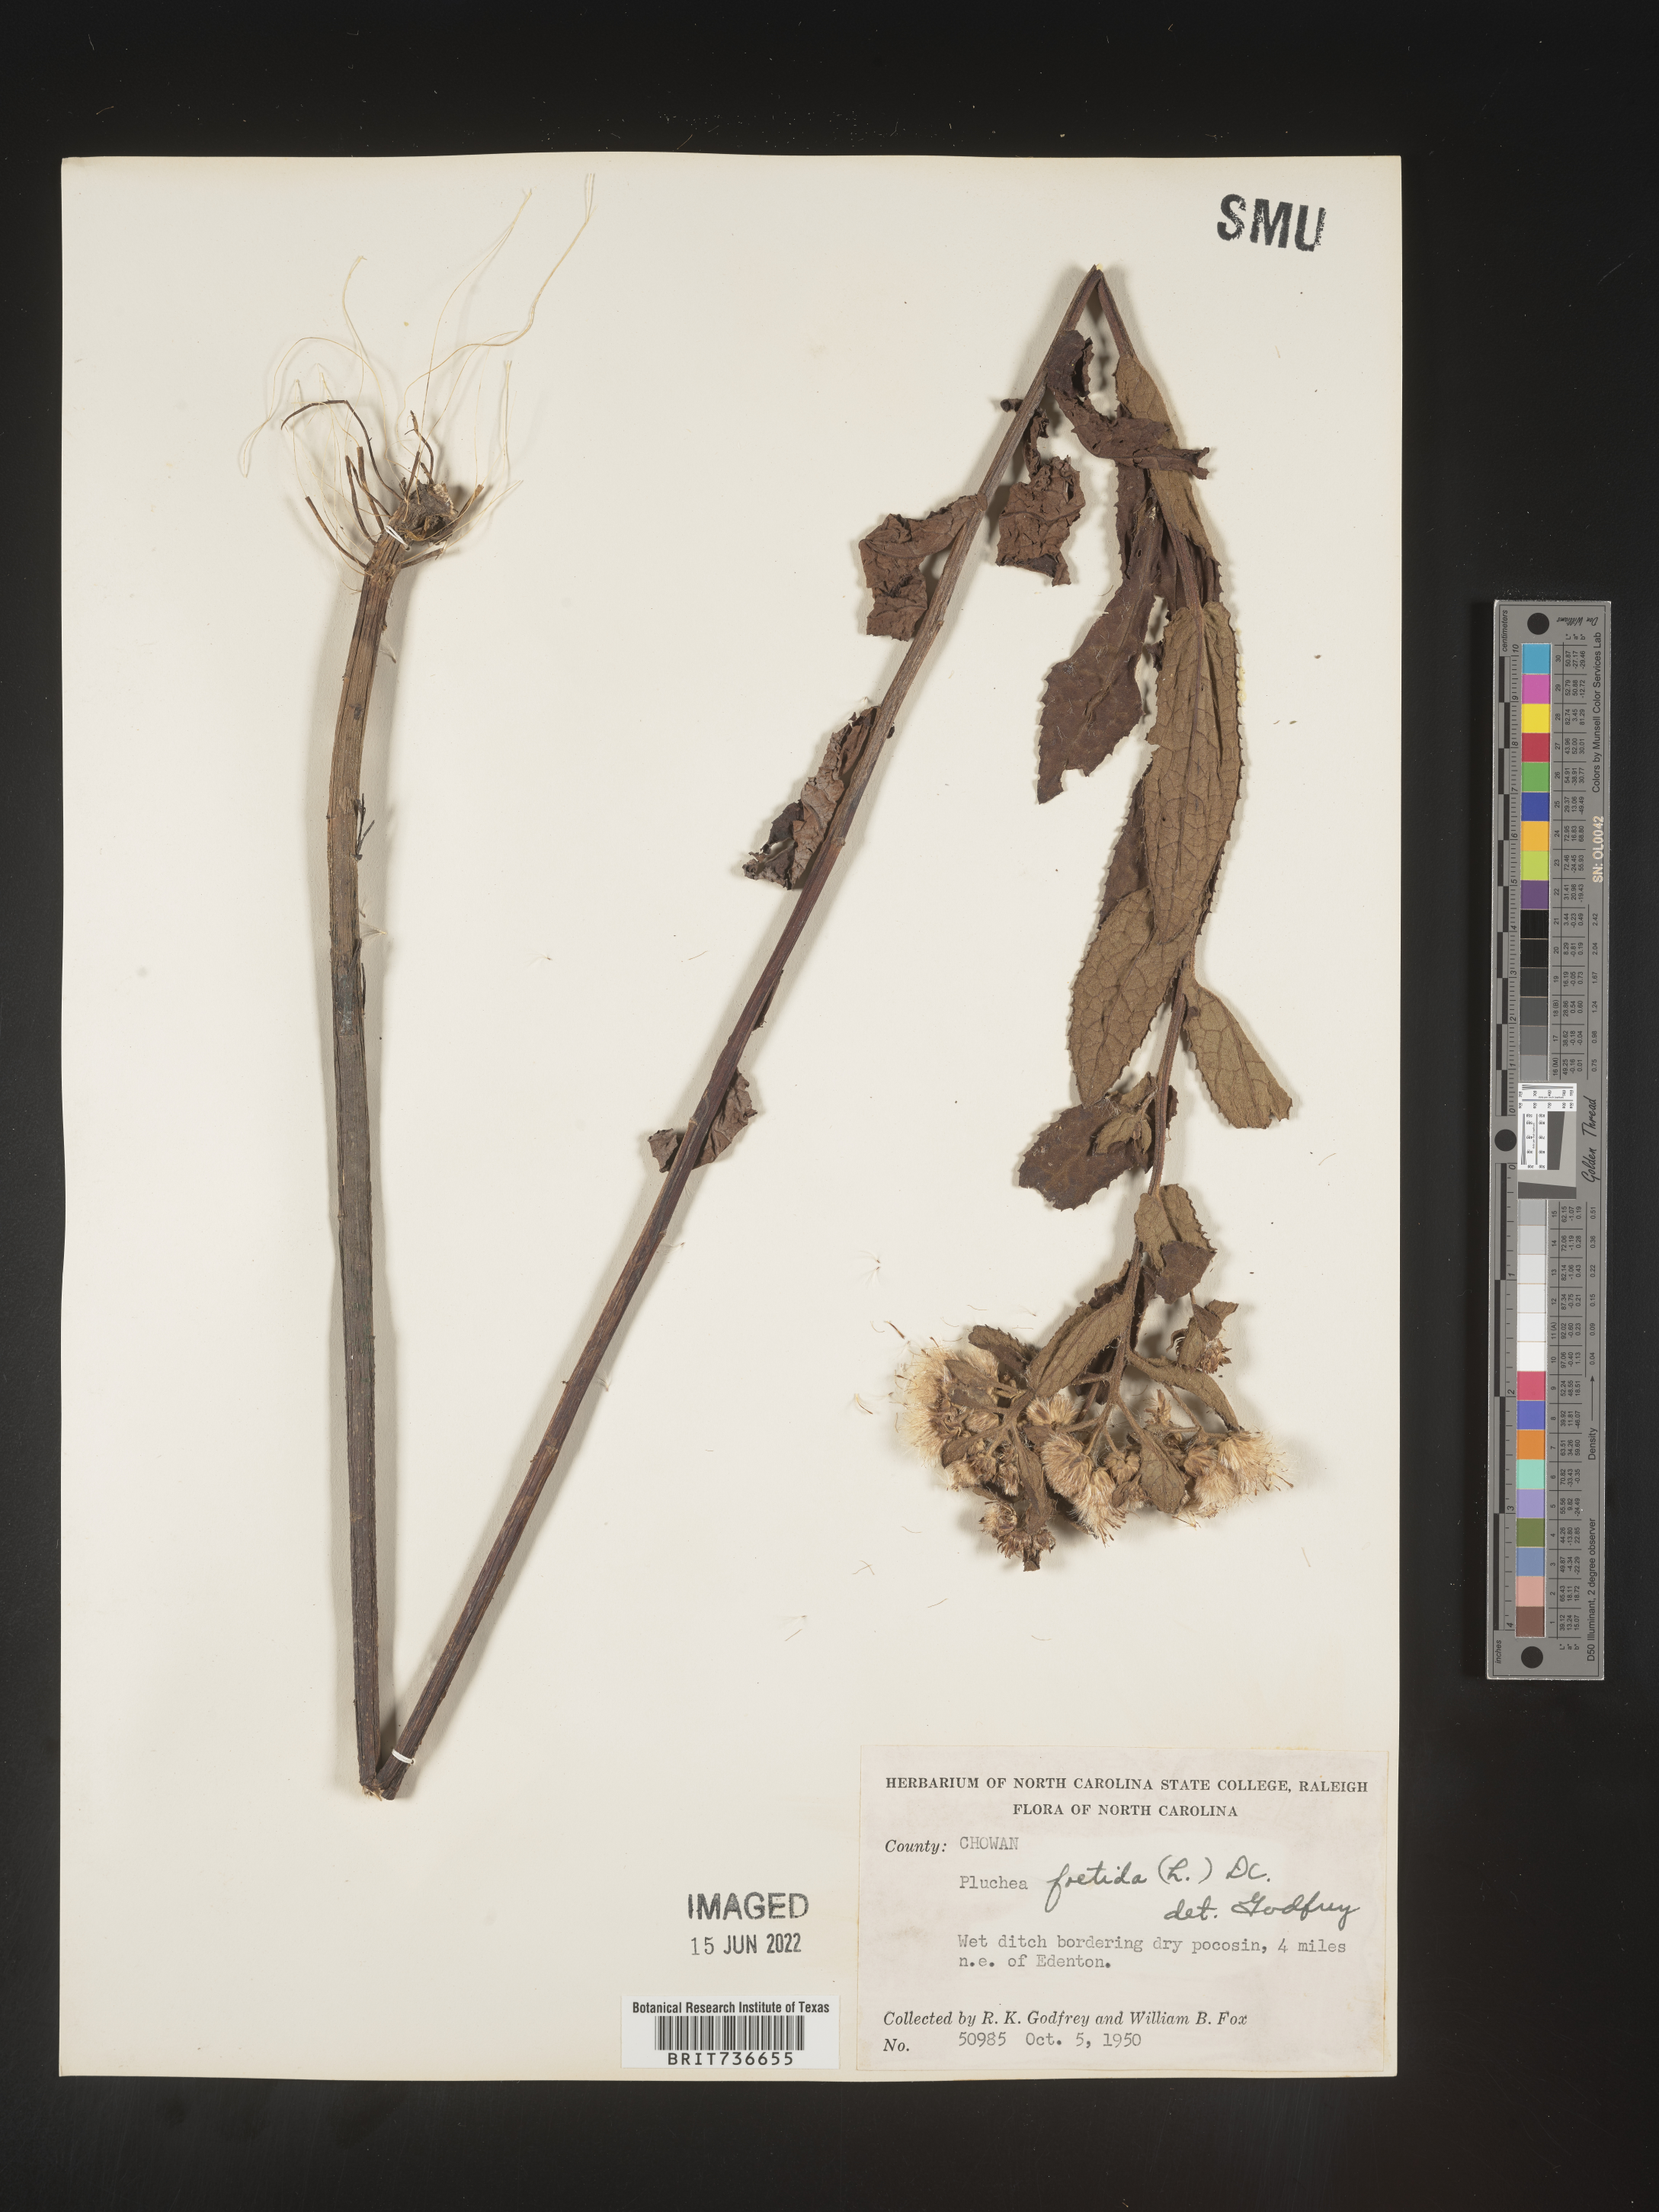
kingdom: Plantae
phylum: Tracheophyta
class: Magnoliopsida
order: Asterales
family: Asteraceae
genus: Pluchea
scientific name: Pluchea foetida
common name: Stinking camphorweed
